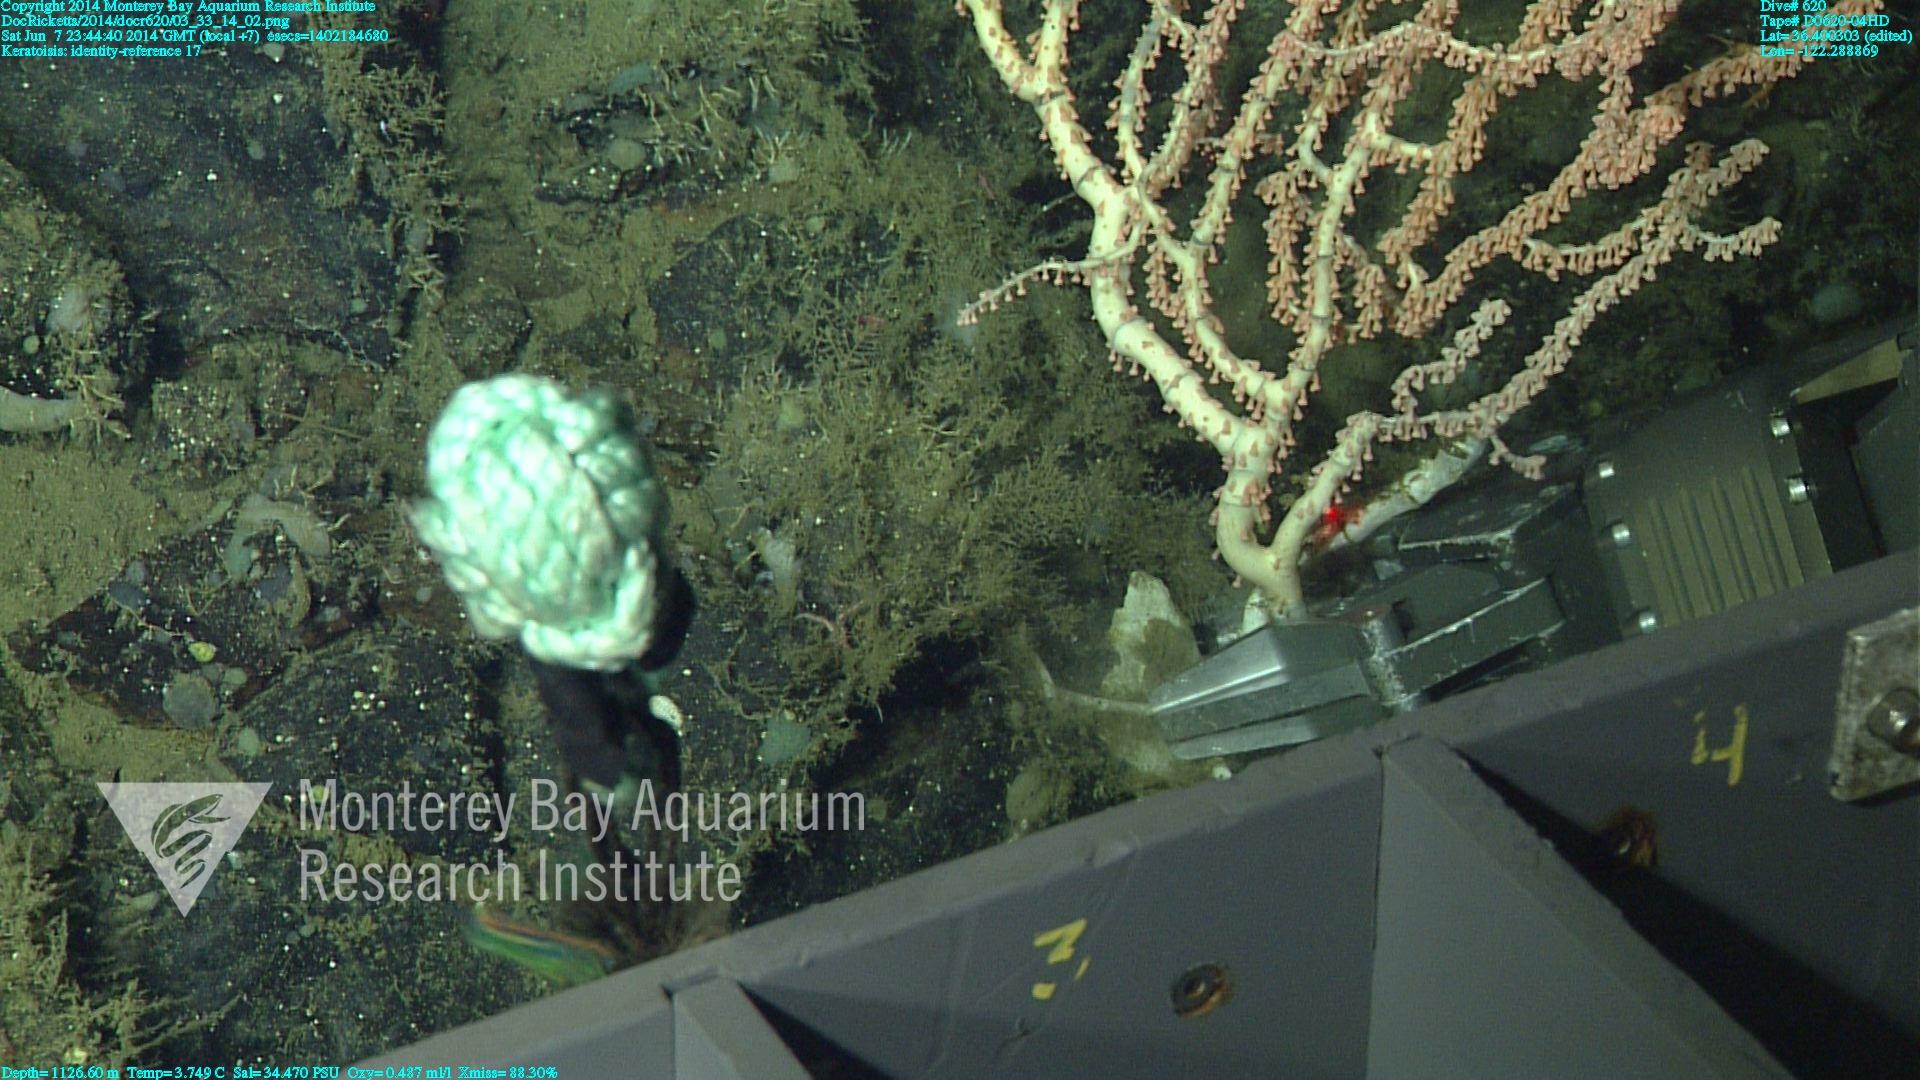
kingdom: Animalia
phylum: Cnidaria
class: Anthozoa
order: Scleralcyonacea
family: Keratoisididae
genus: Keratoisis
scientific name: Keratoisis
